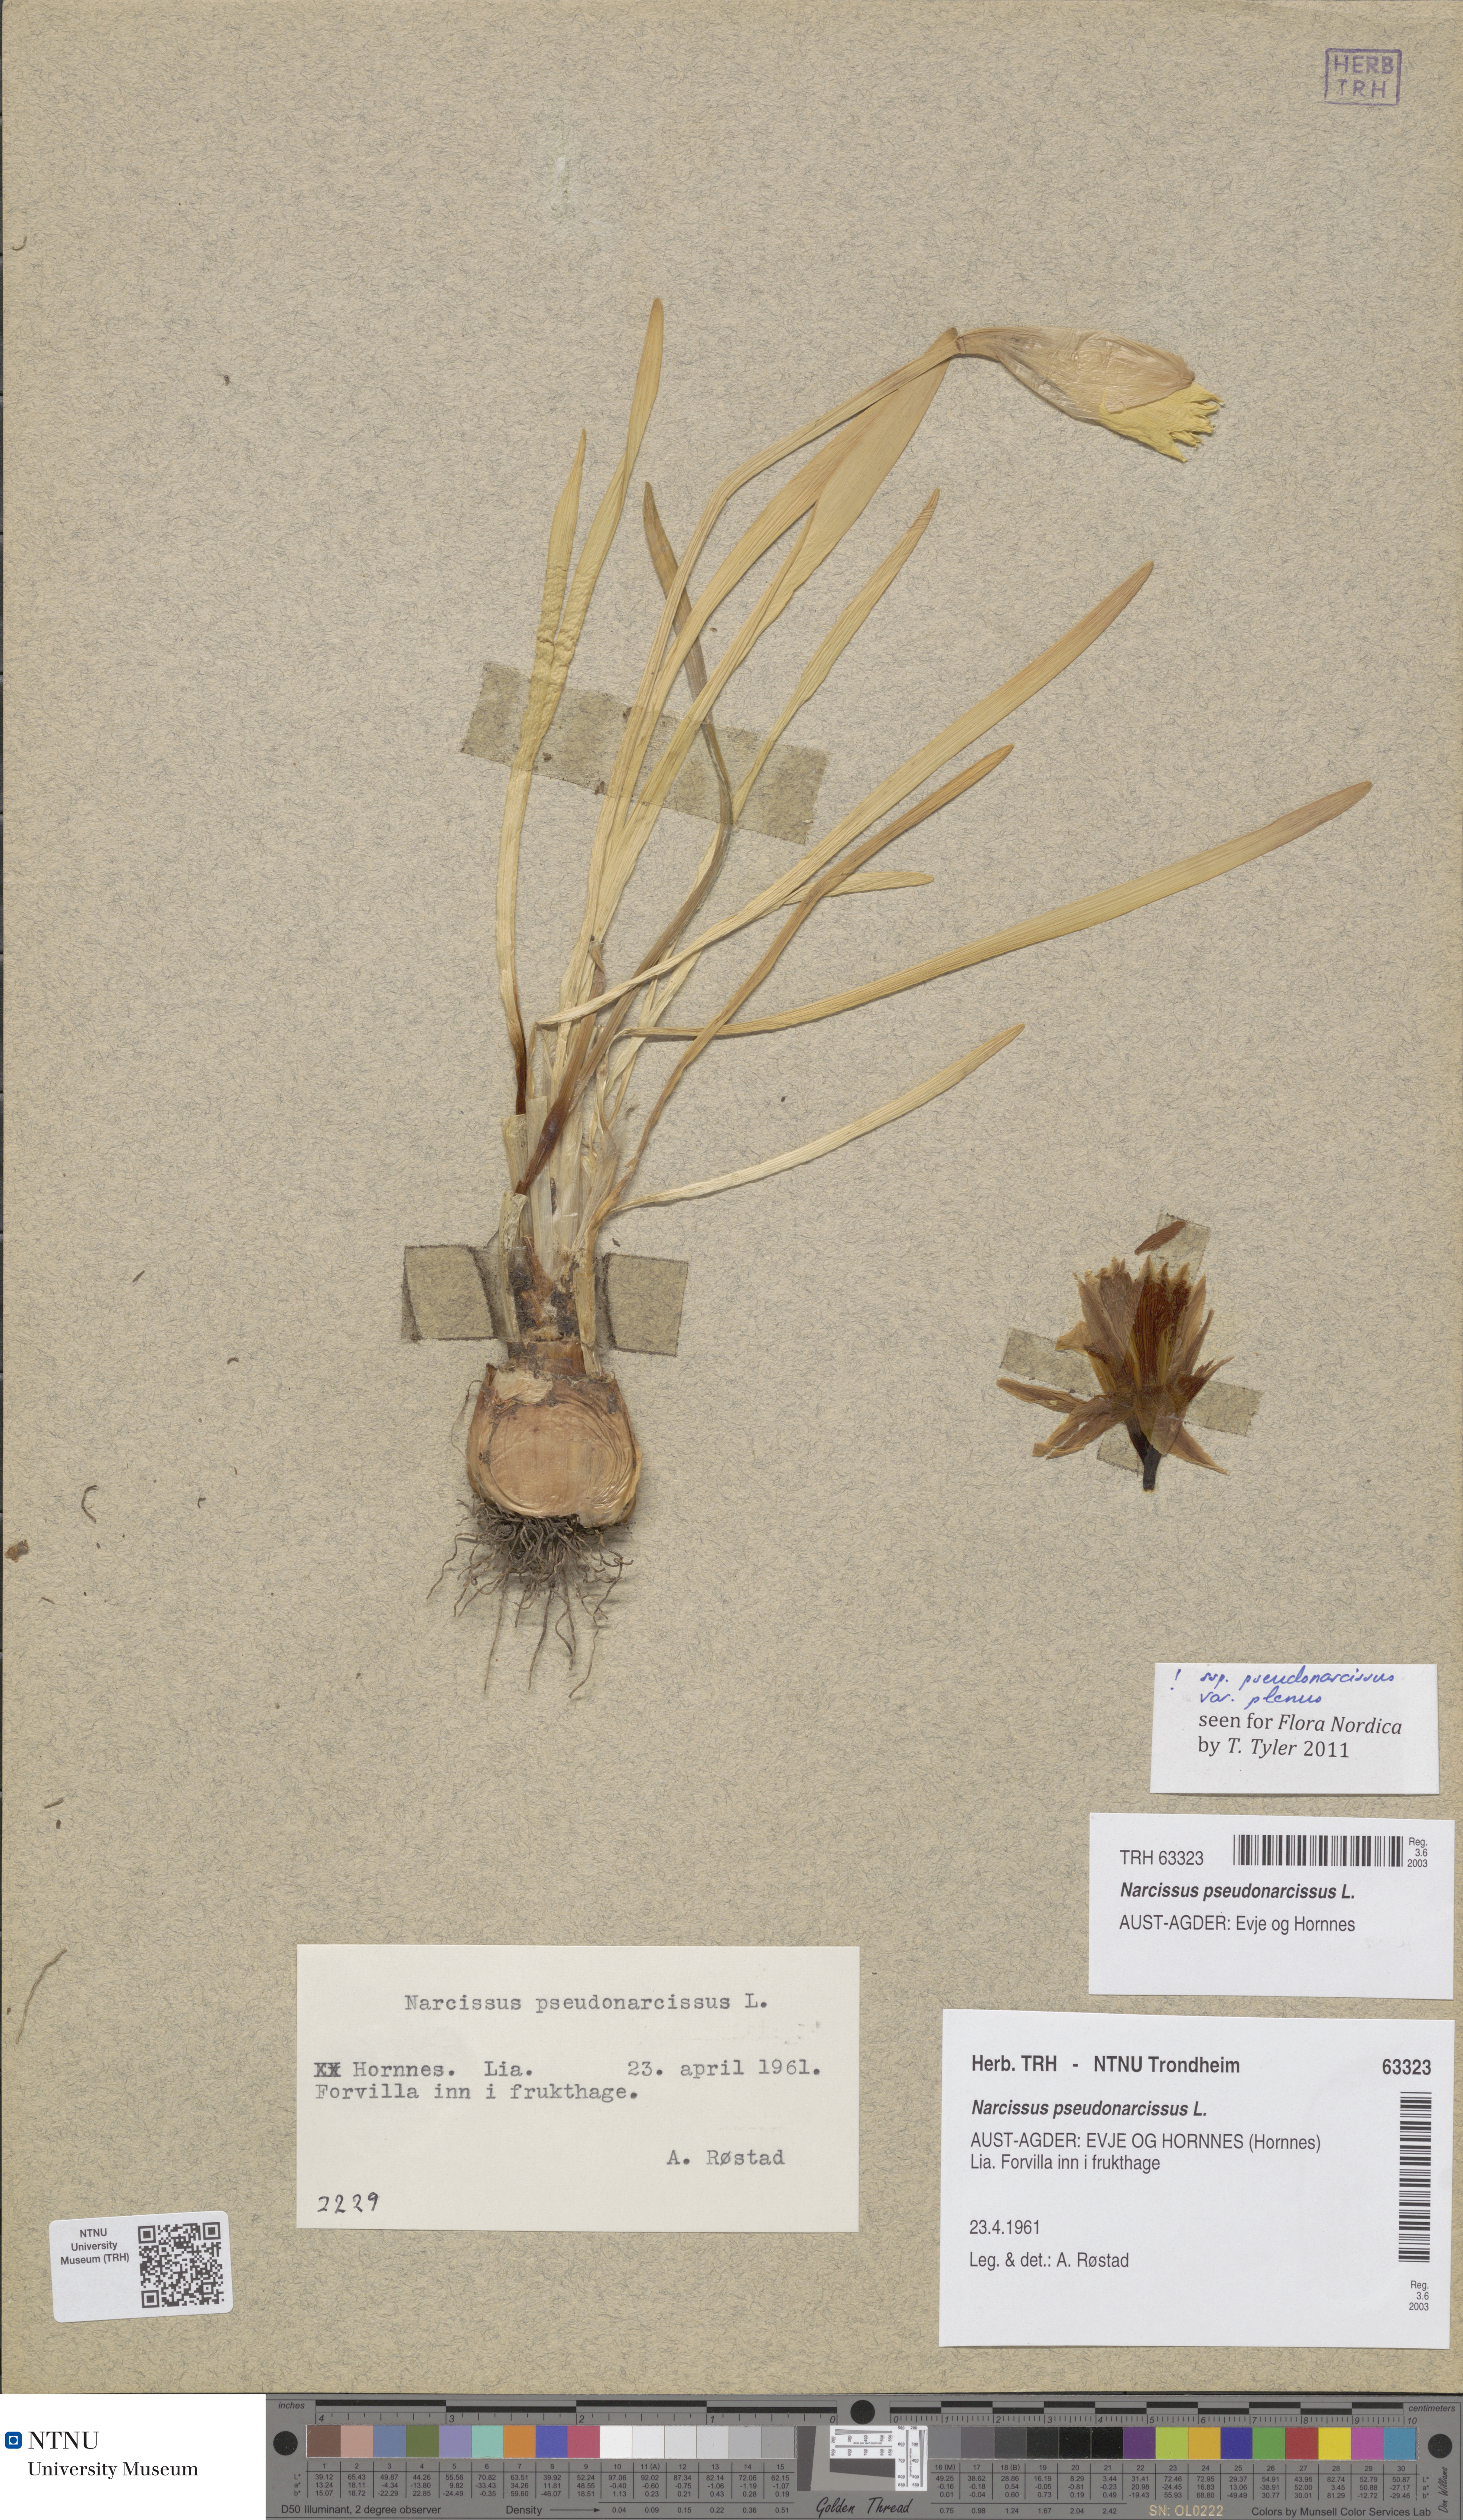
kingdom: Plantae
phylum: Tracheophyta
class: Liliopsida
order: Asparagales
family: Amaryllidaceae
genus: Narcissus
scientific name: Narcissus pseudonarcissus
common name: Daffodil
